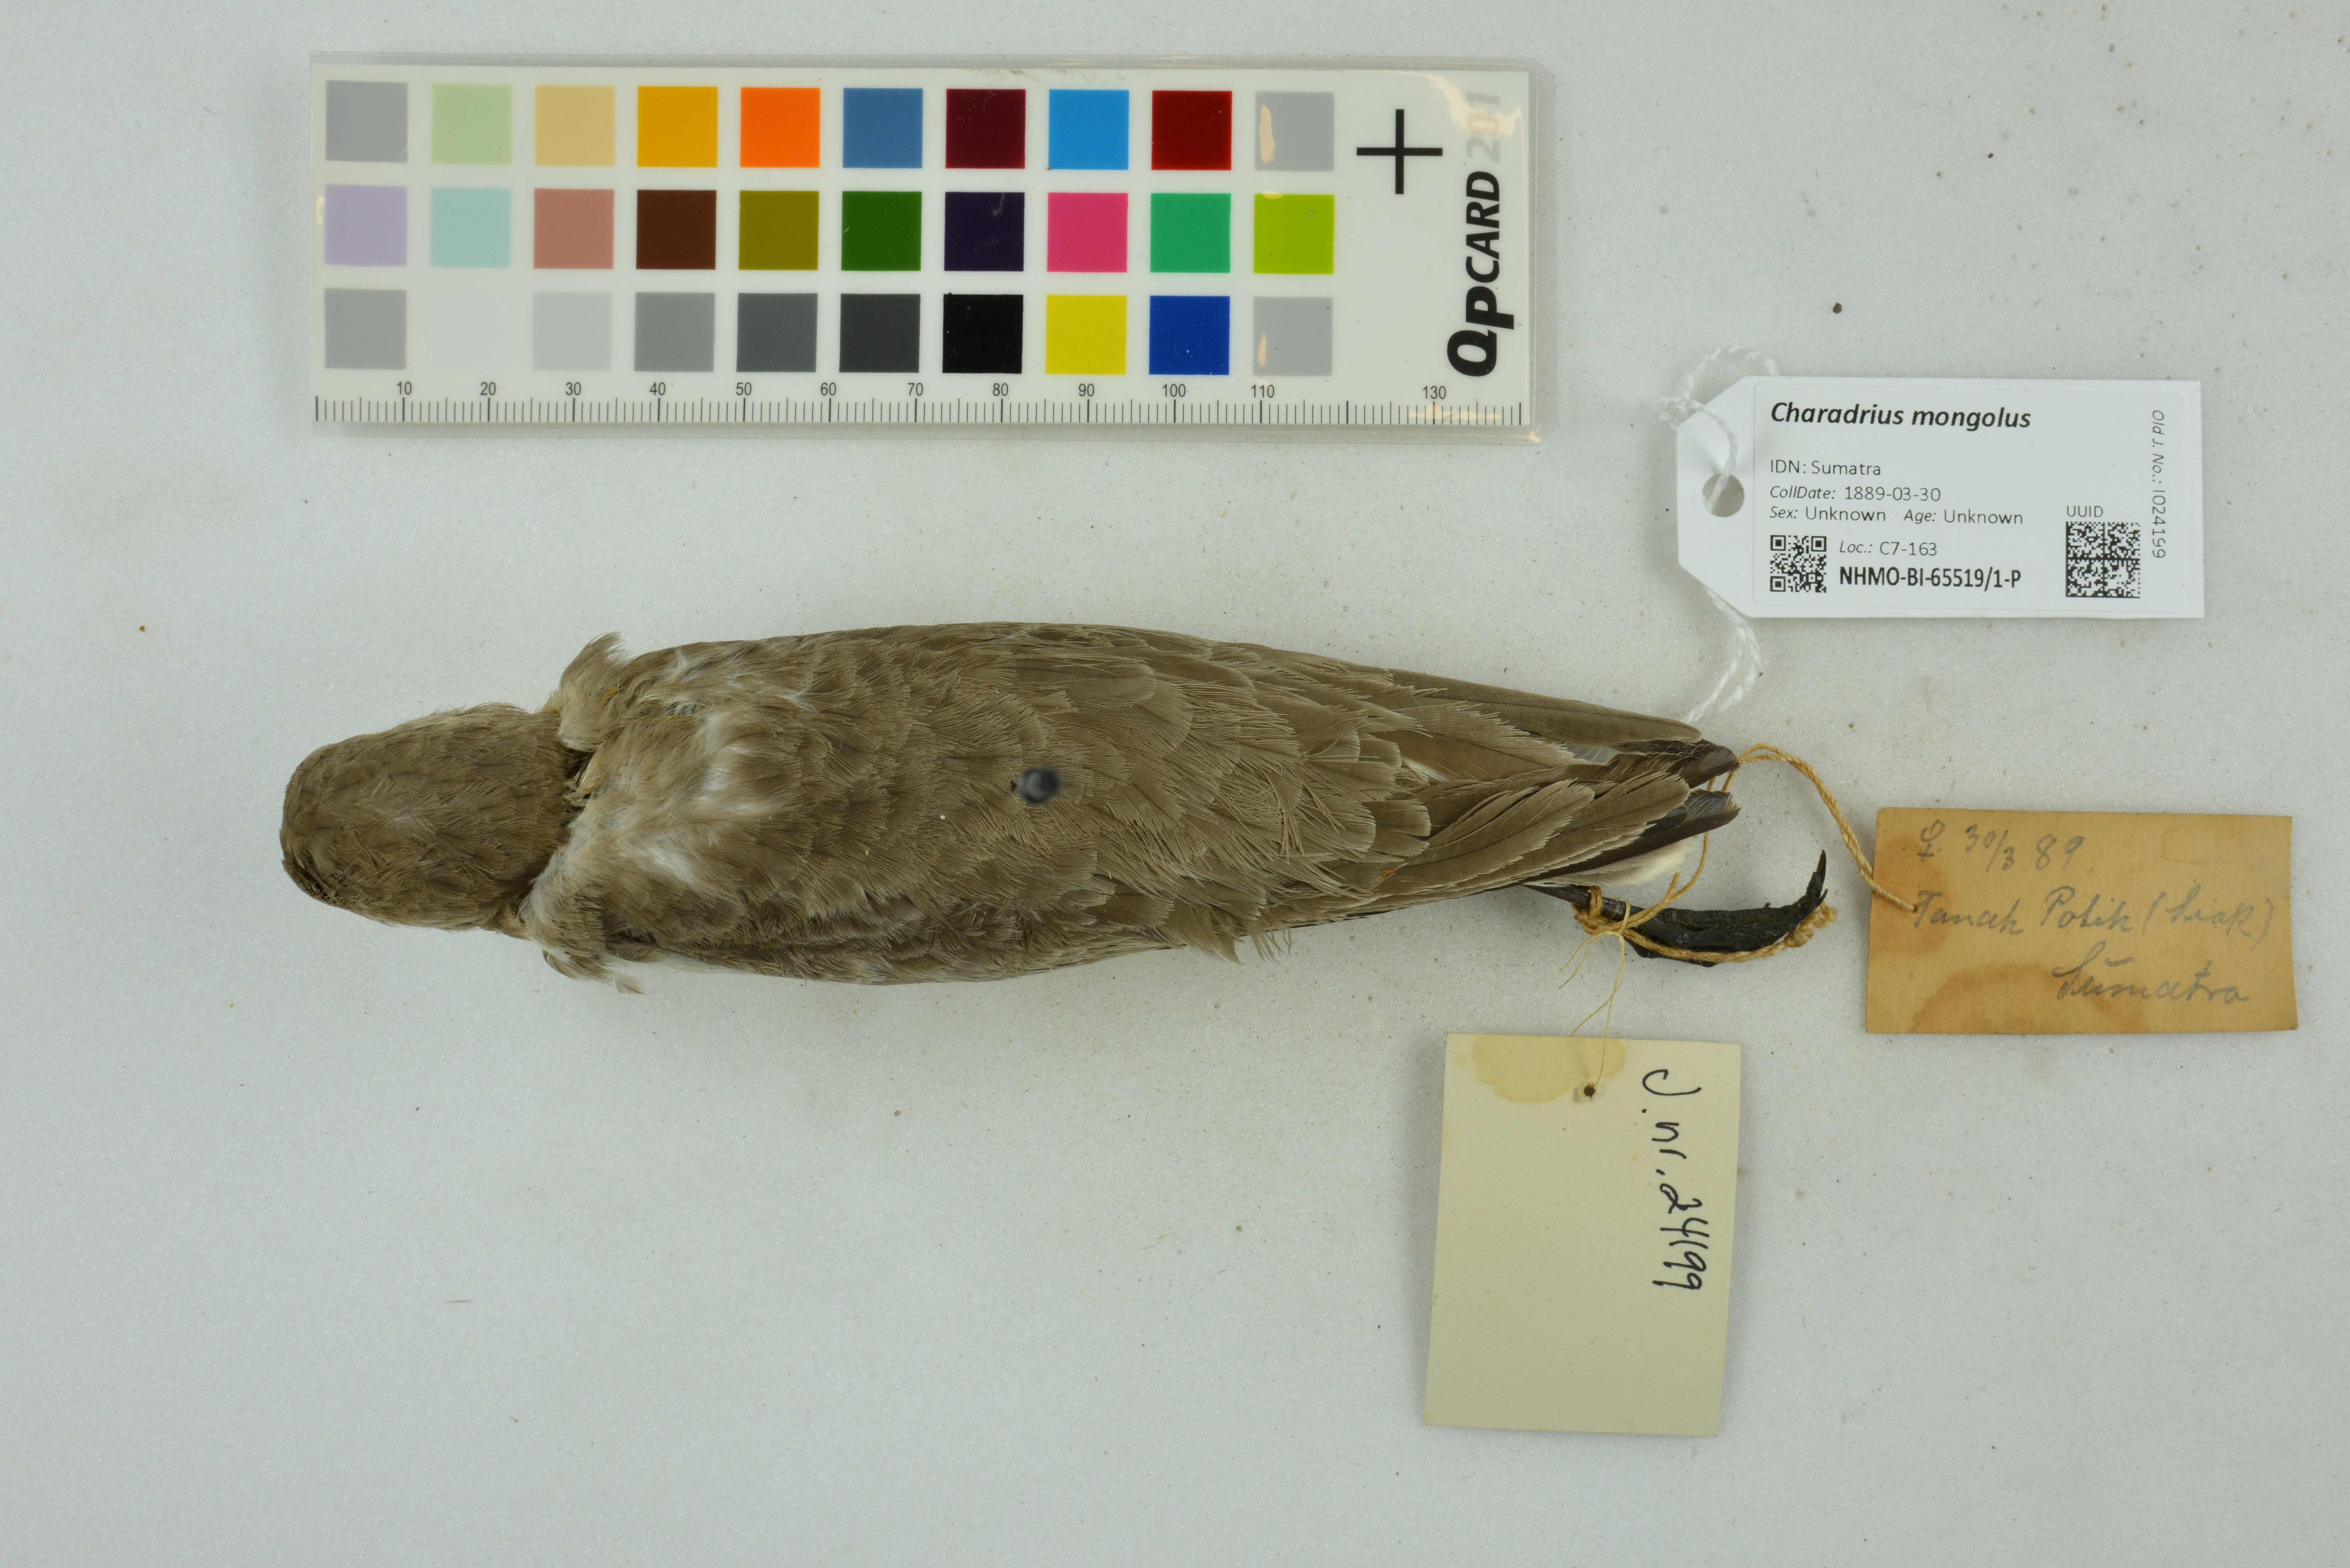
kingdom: Animalia
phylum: Chordata
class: Aves
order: Charadriiformes
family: Charadriidae
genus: Charadrius
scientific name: Charadrius mongolus
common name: Lesser sand-plover
